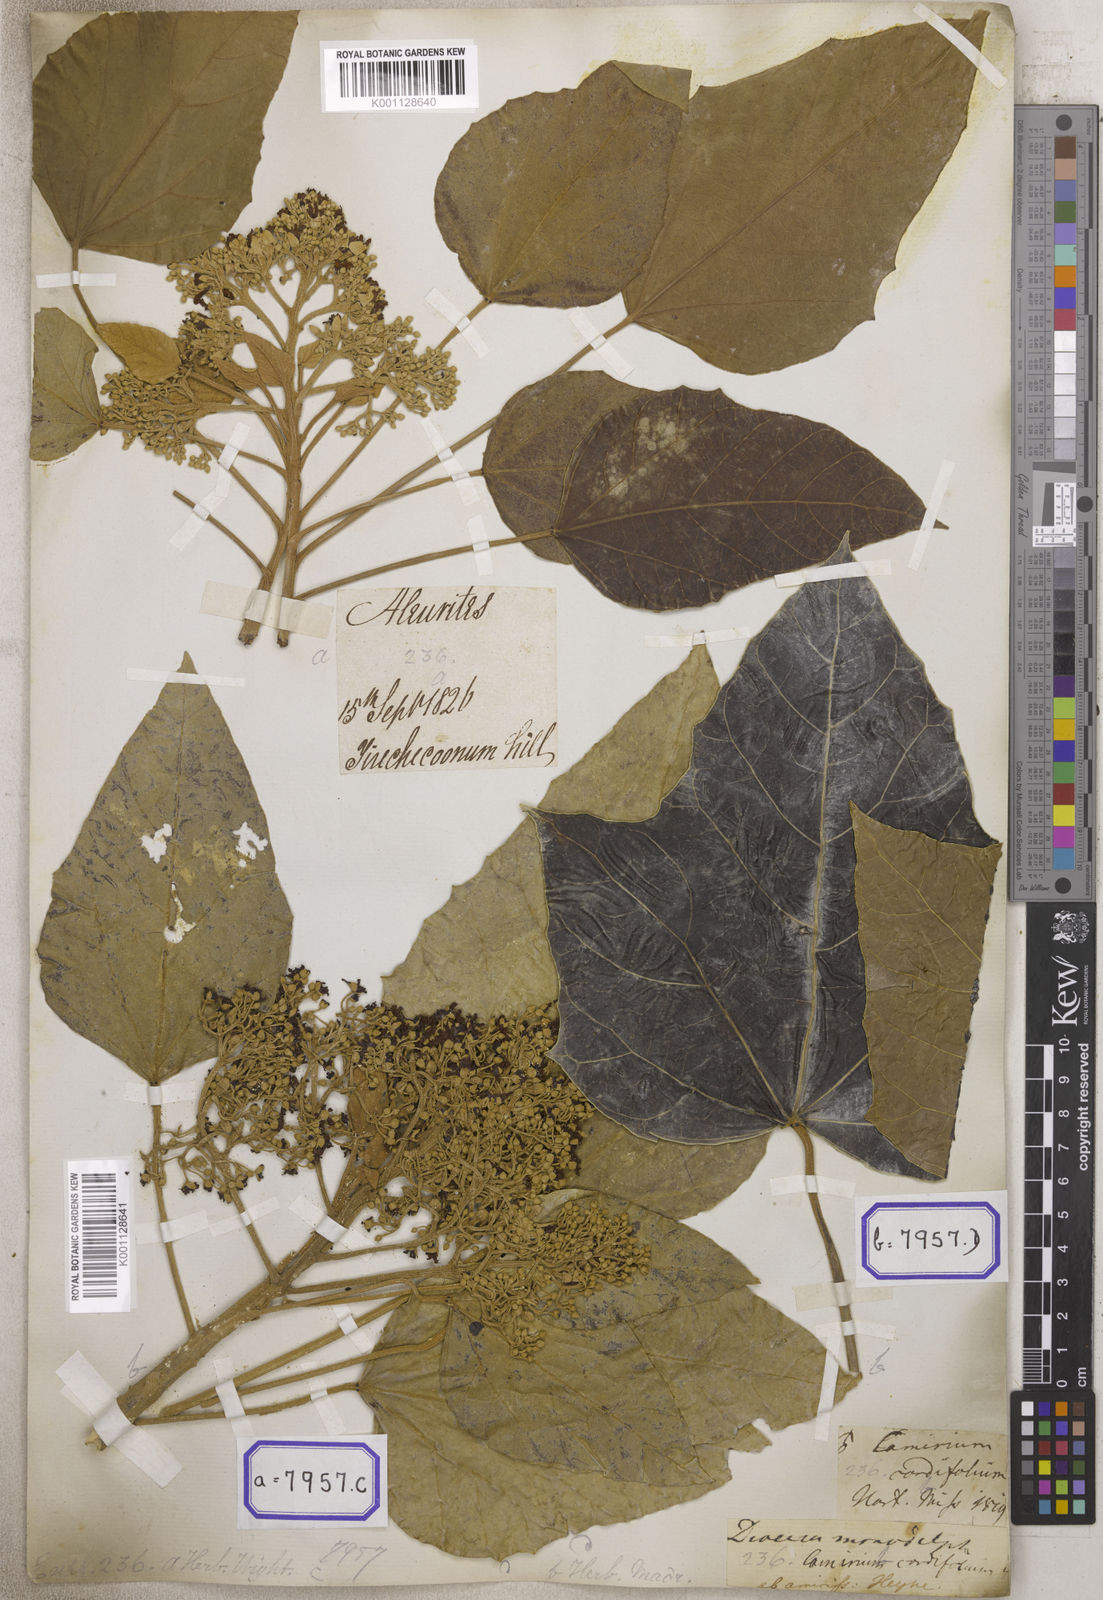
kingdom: Plantae
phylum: Tracheophyta
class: Magnoliopsida
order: Malpighiales
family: Euphorbiaceae
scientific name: Euphorbiaceae
